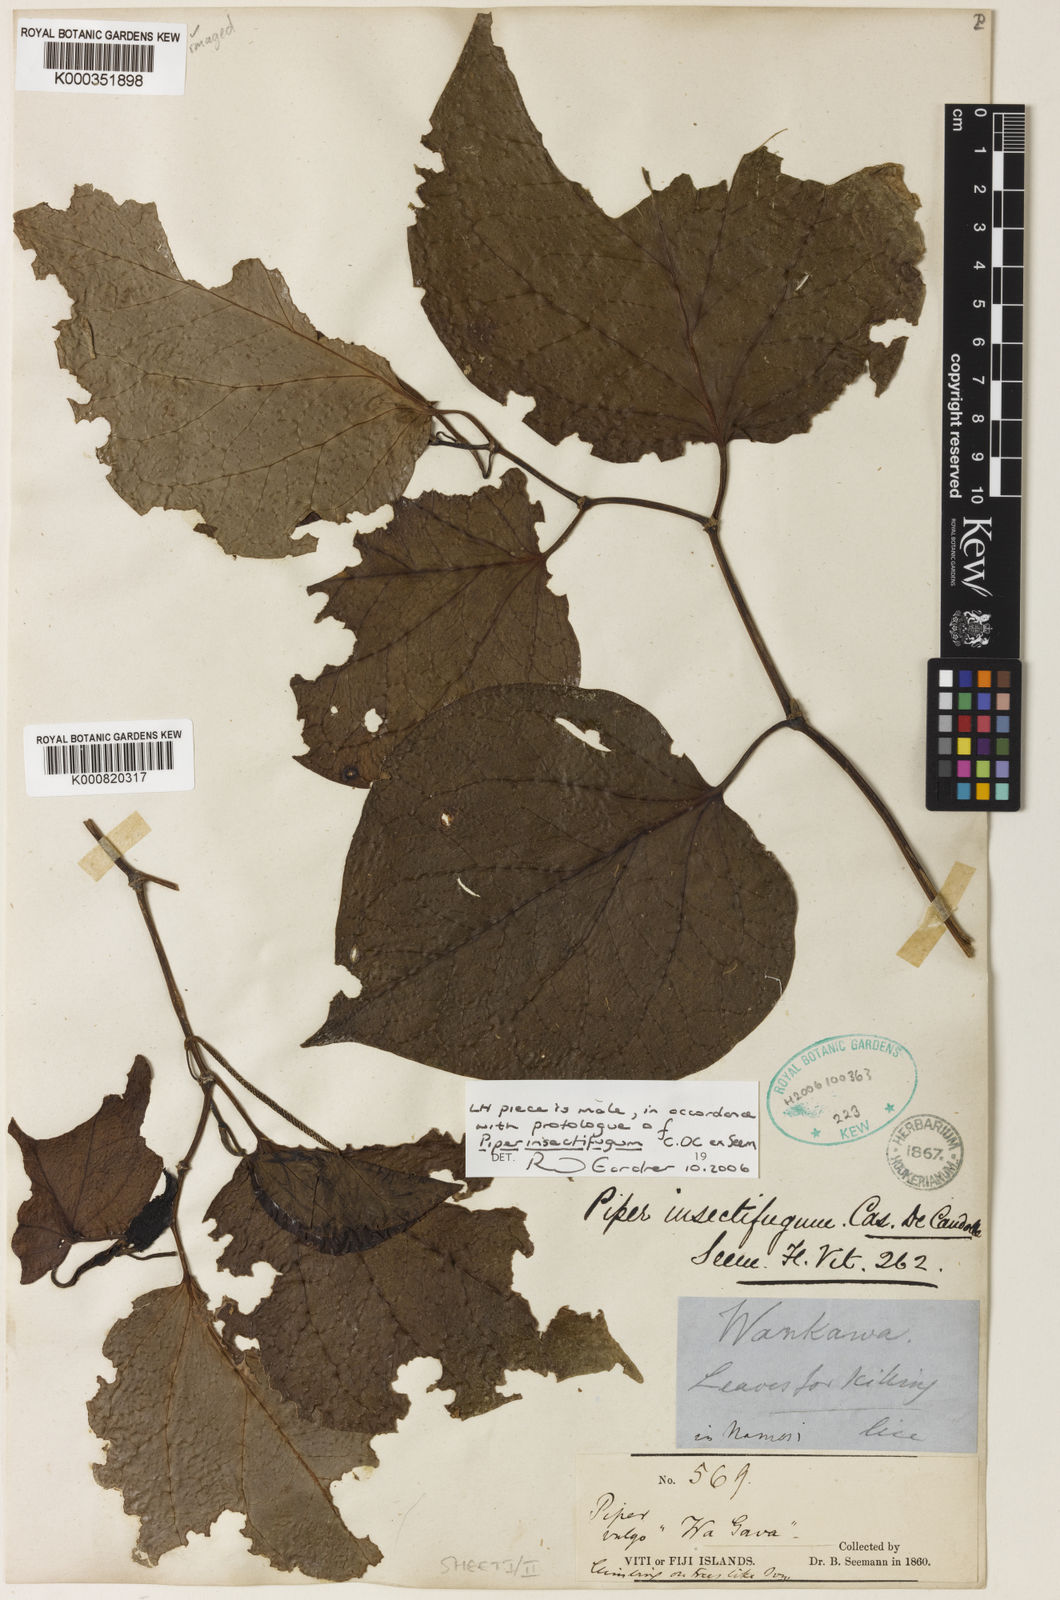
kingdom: Plantae
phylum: Tracheophyta
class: Magnoliopsida
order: Piperales
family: Piperaceae
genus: Piper
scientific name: Piper insectifugum
